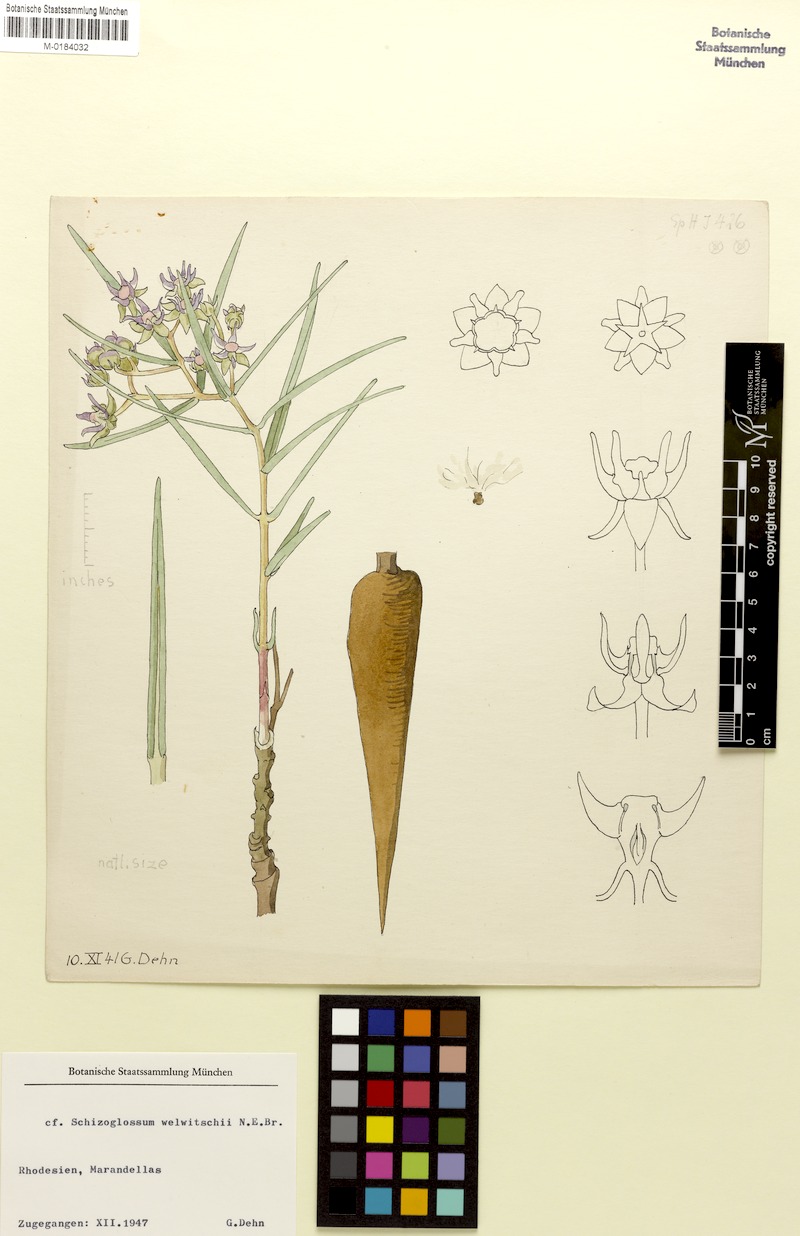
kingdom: Plantae
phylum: Tracheophyta
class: Magnoliopsida
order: Gentianales
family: Apocynaceae
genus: Asclepias
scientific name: Asclepias minor
